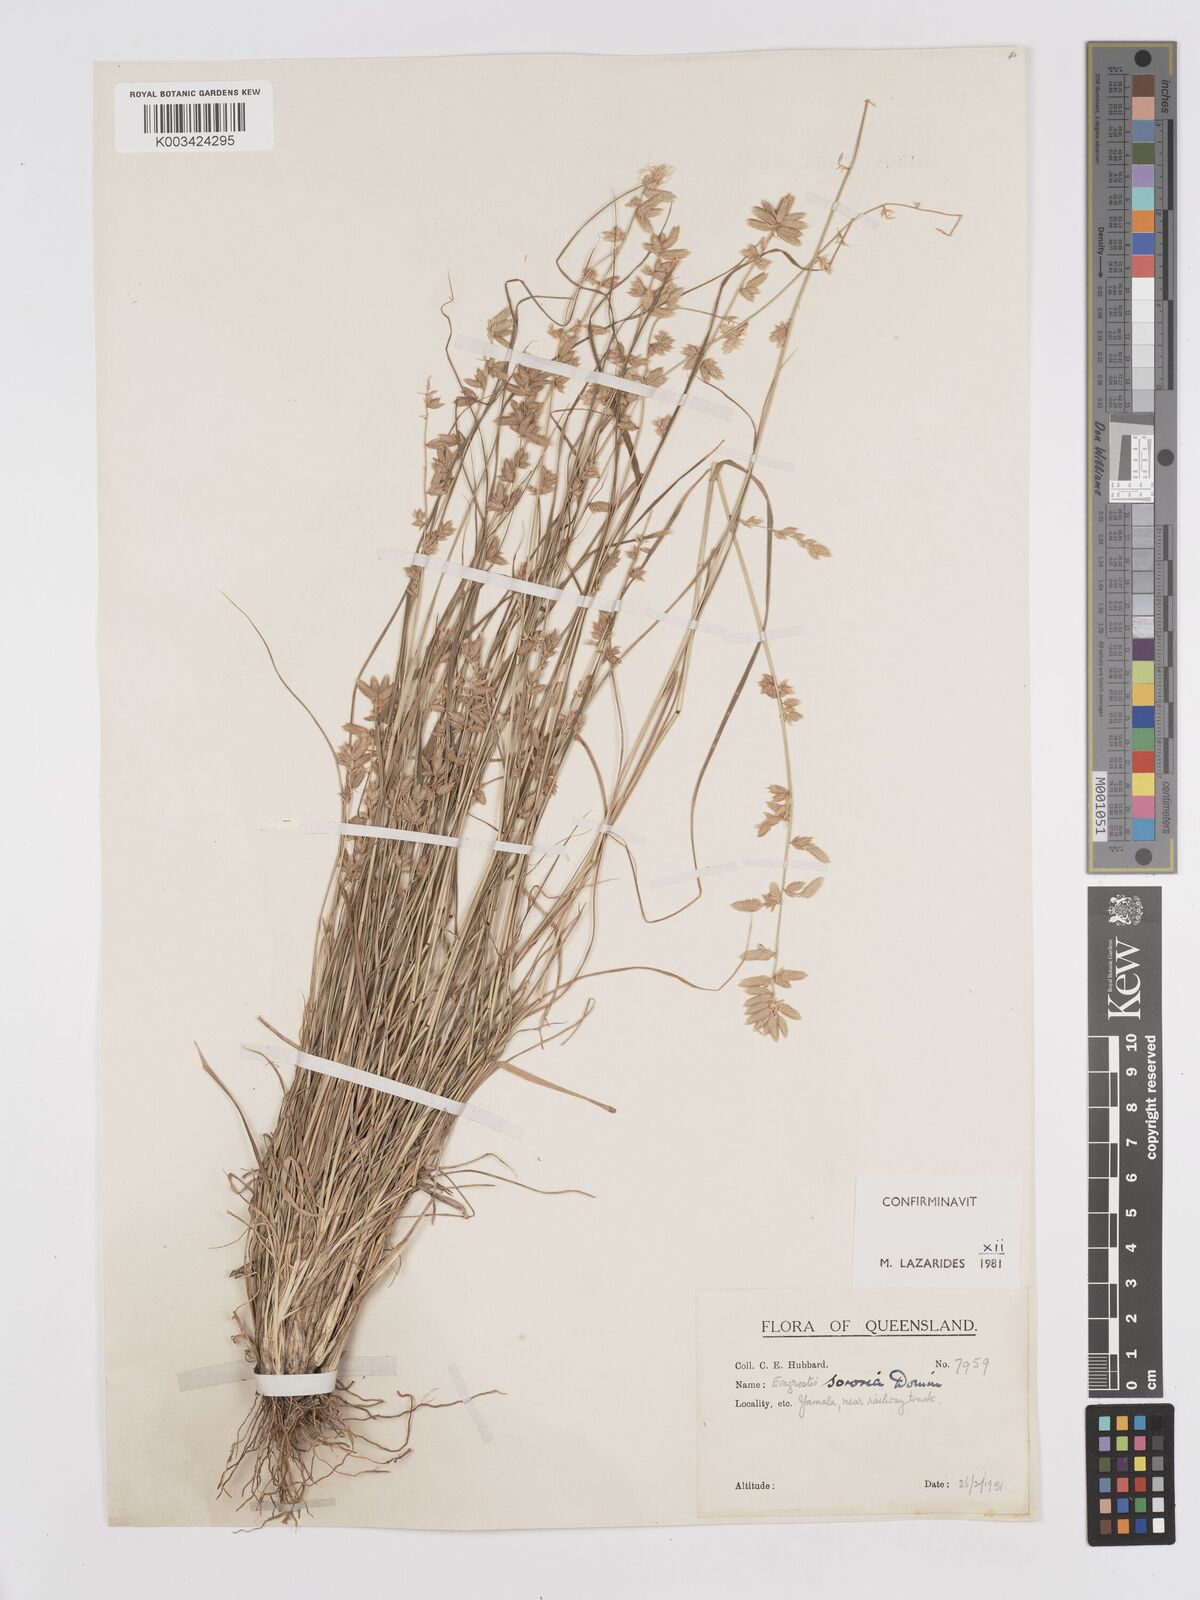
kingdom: Plantae
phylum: Tracheophyta
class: Liliopsida
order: Poales
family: Poaceae
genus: Eragrostis
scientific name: Eragrostis sororia
